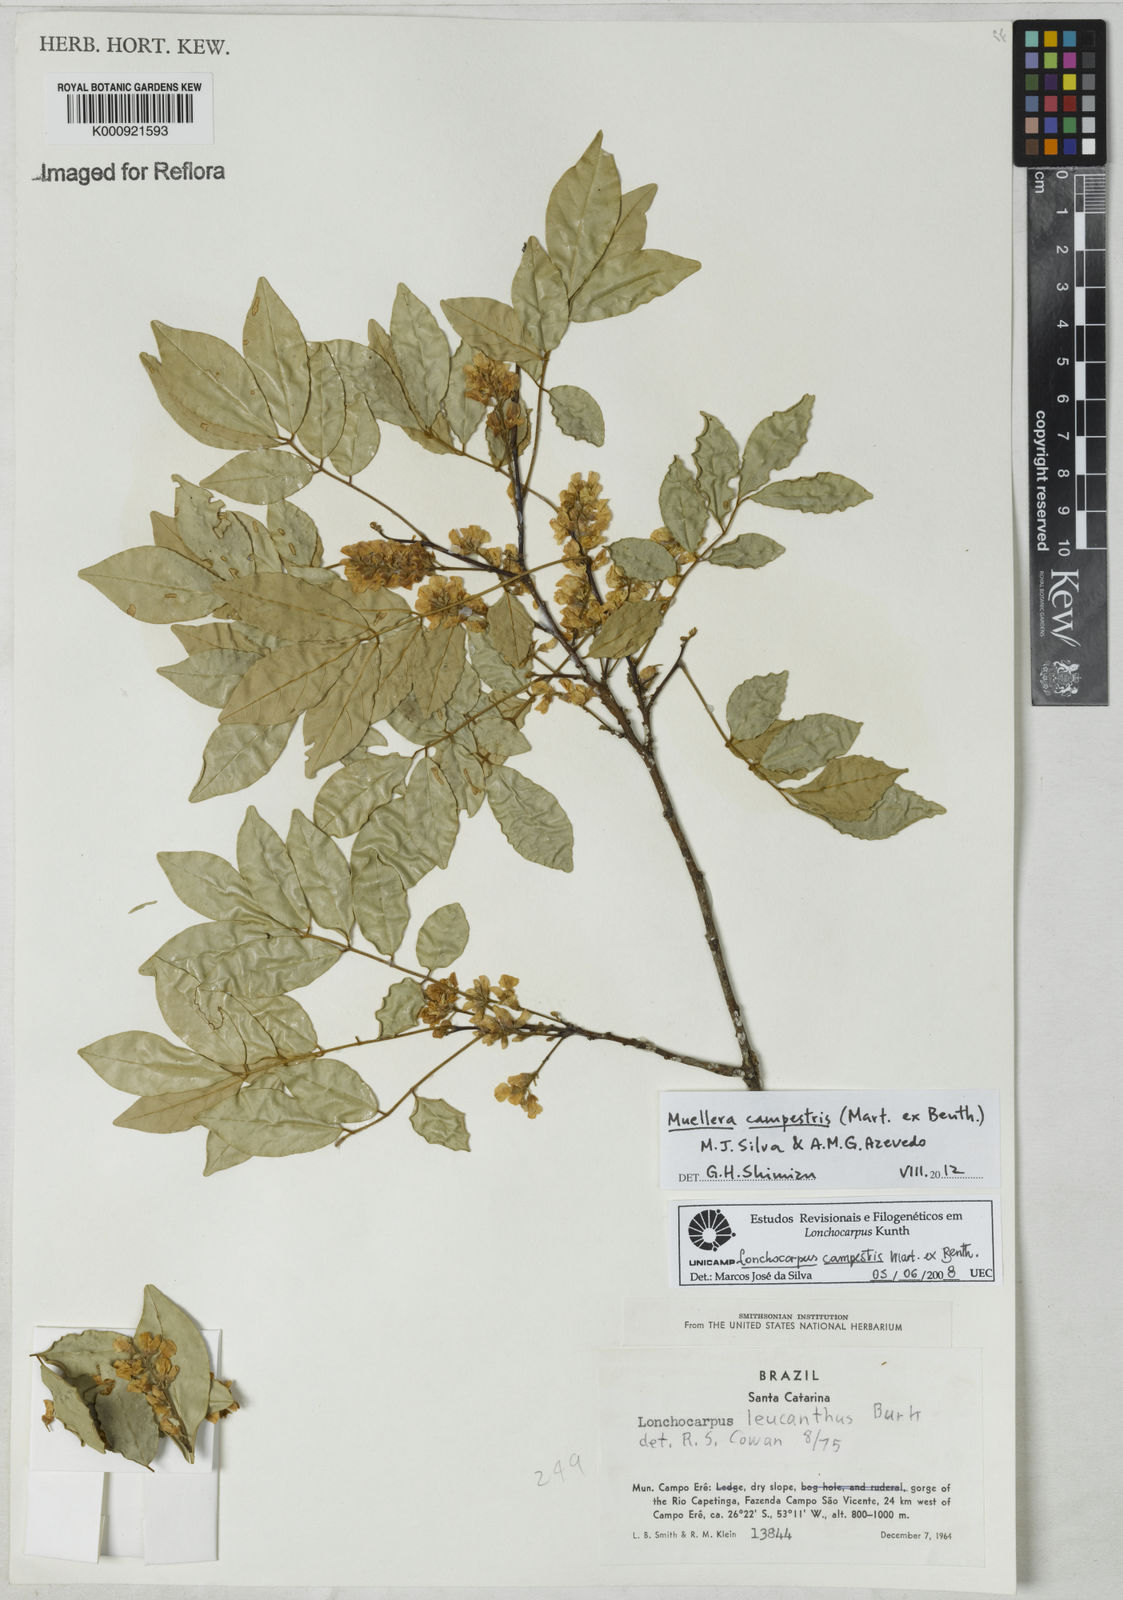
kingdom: Plantae
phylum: Tracheophyta
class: Magnoliopsida
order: Fabales
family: Fabaceae
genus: Muellera
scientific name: Muellera campestris
